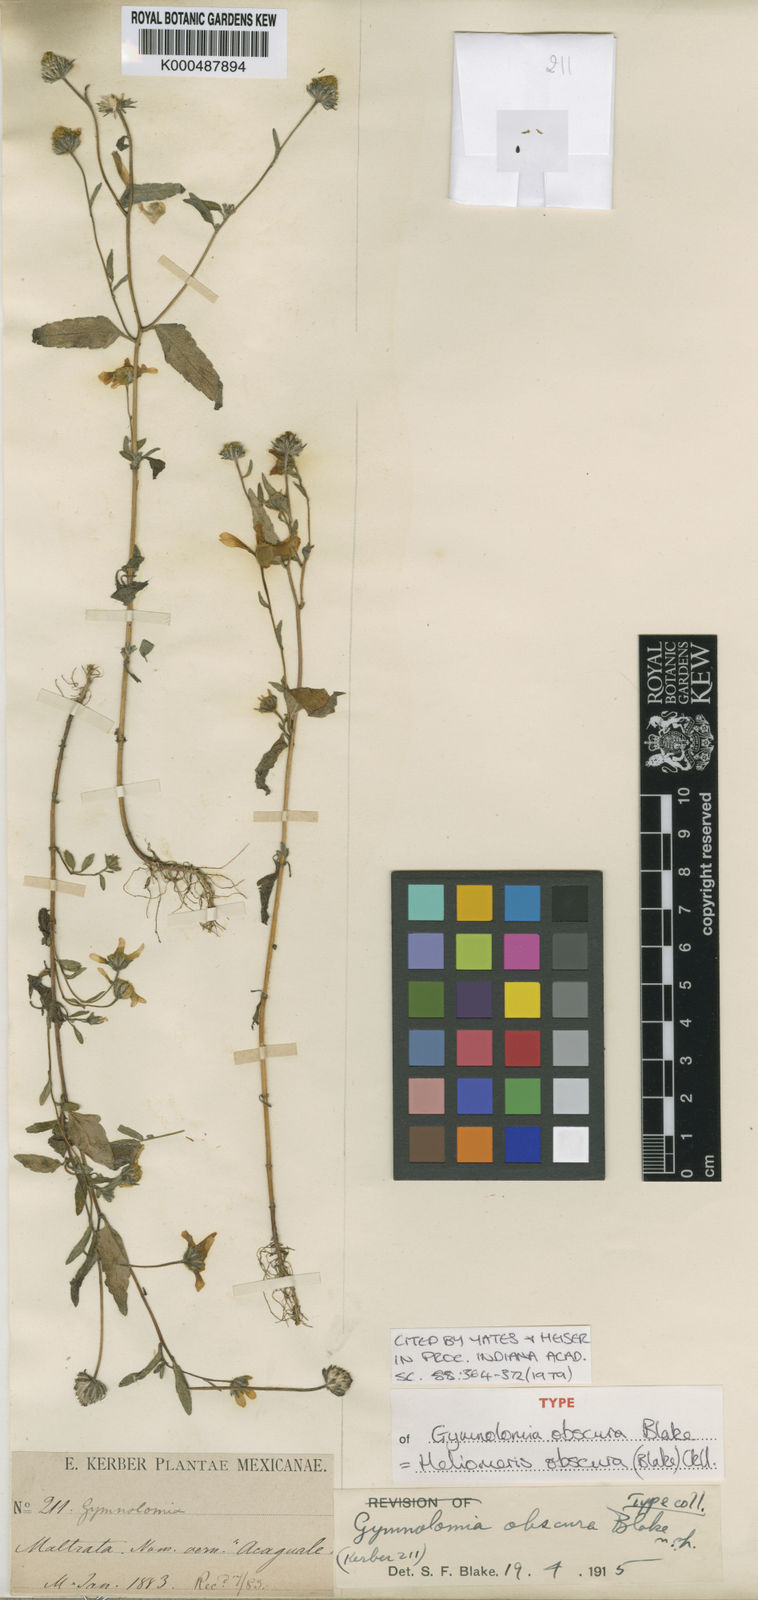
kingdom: Plantae
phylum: Tracheophyta
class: Magnoliopsida
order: Asterales
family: Asteraceae
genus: Heliomeris
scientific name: Heliomeris obscura
